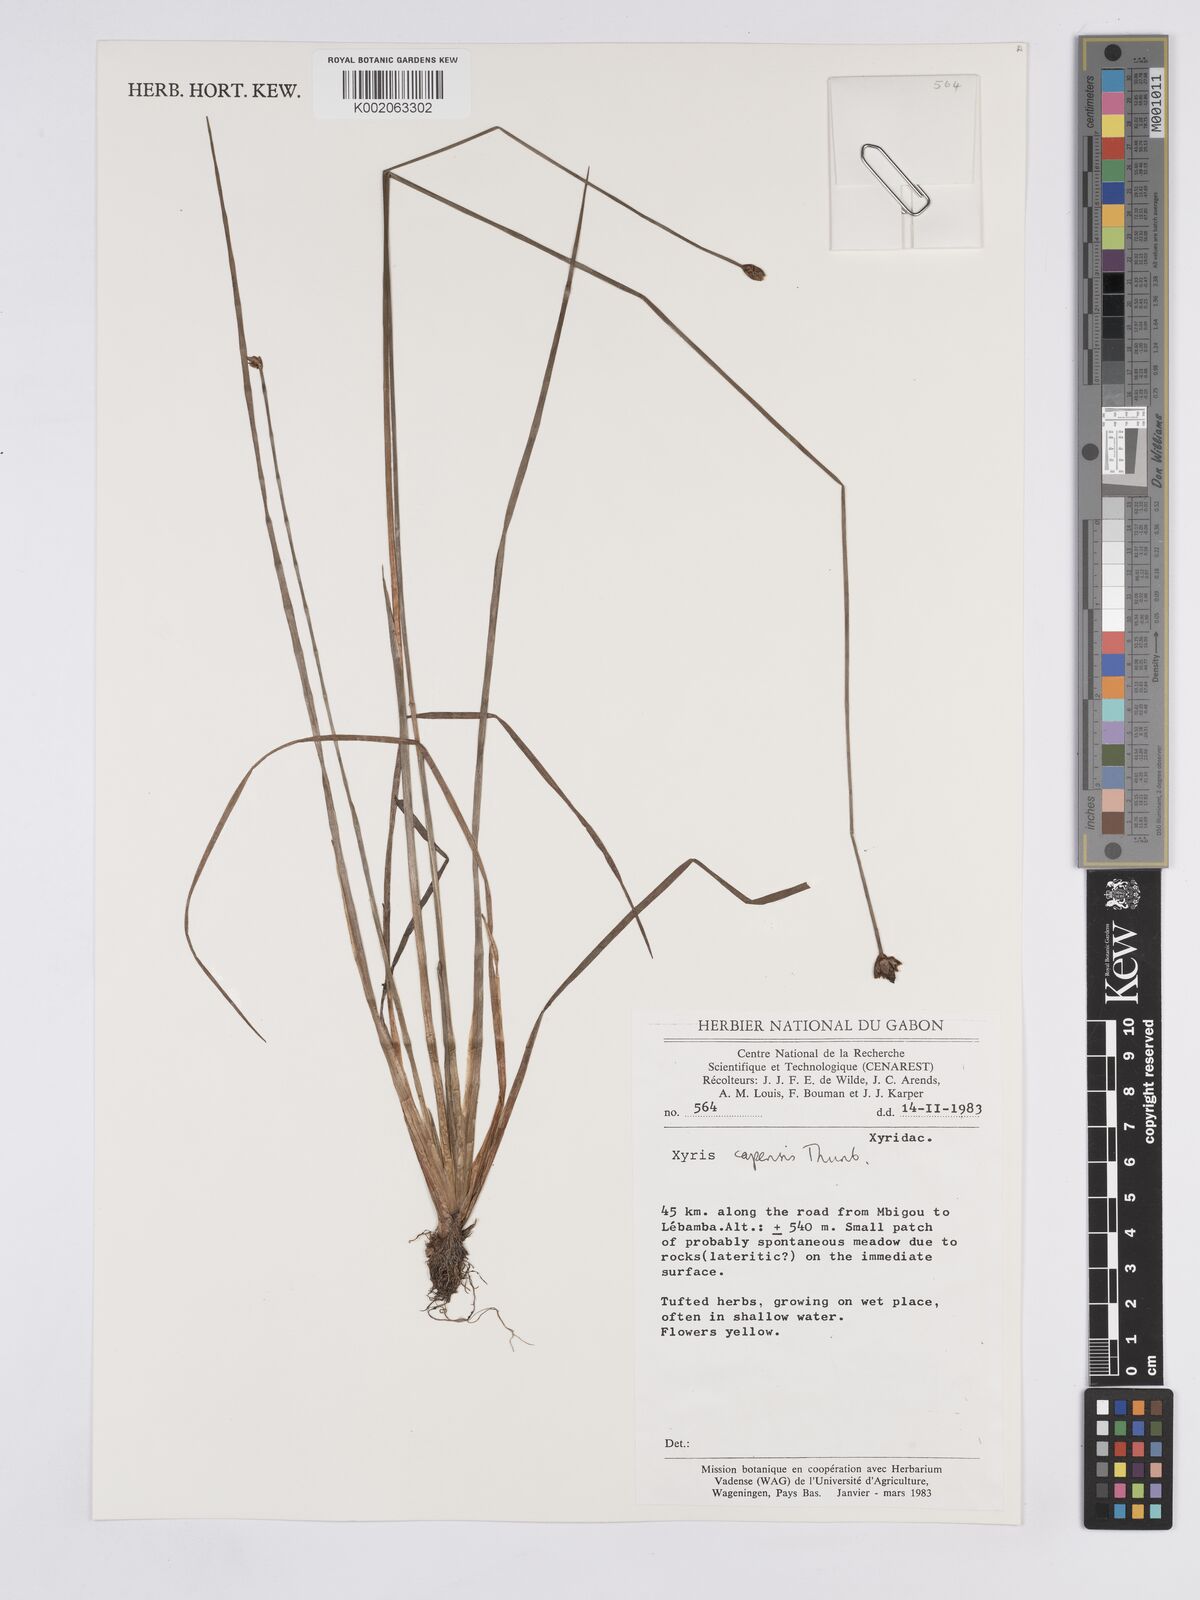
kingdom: Plantae
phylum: Tracheophyta
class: Liliopsida
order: Poales
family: Xyridaceae
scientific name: Xyridaceae
